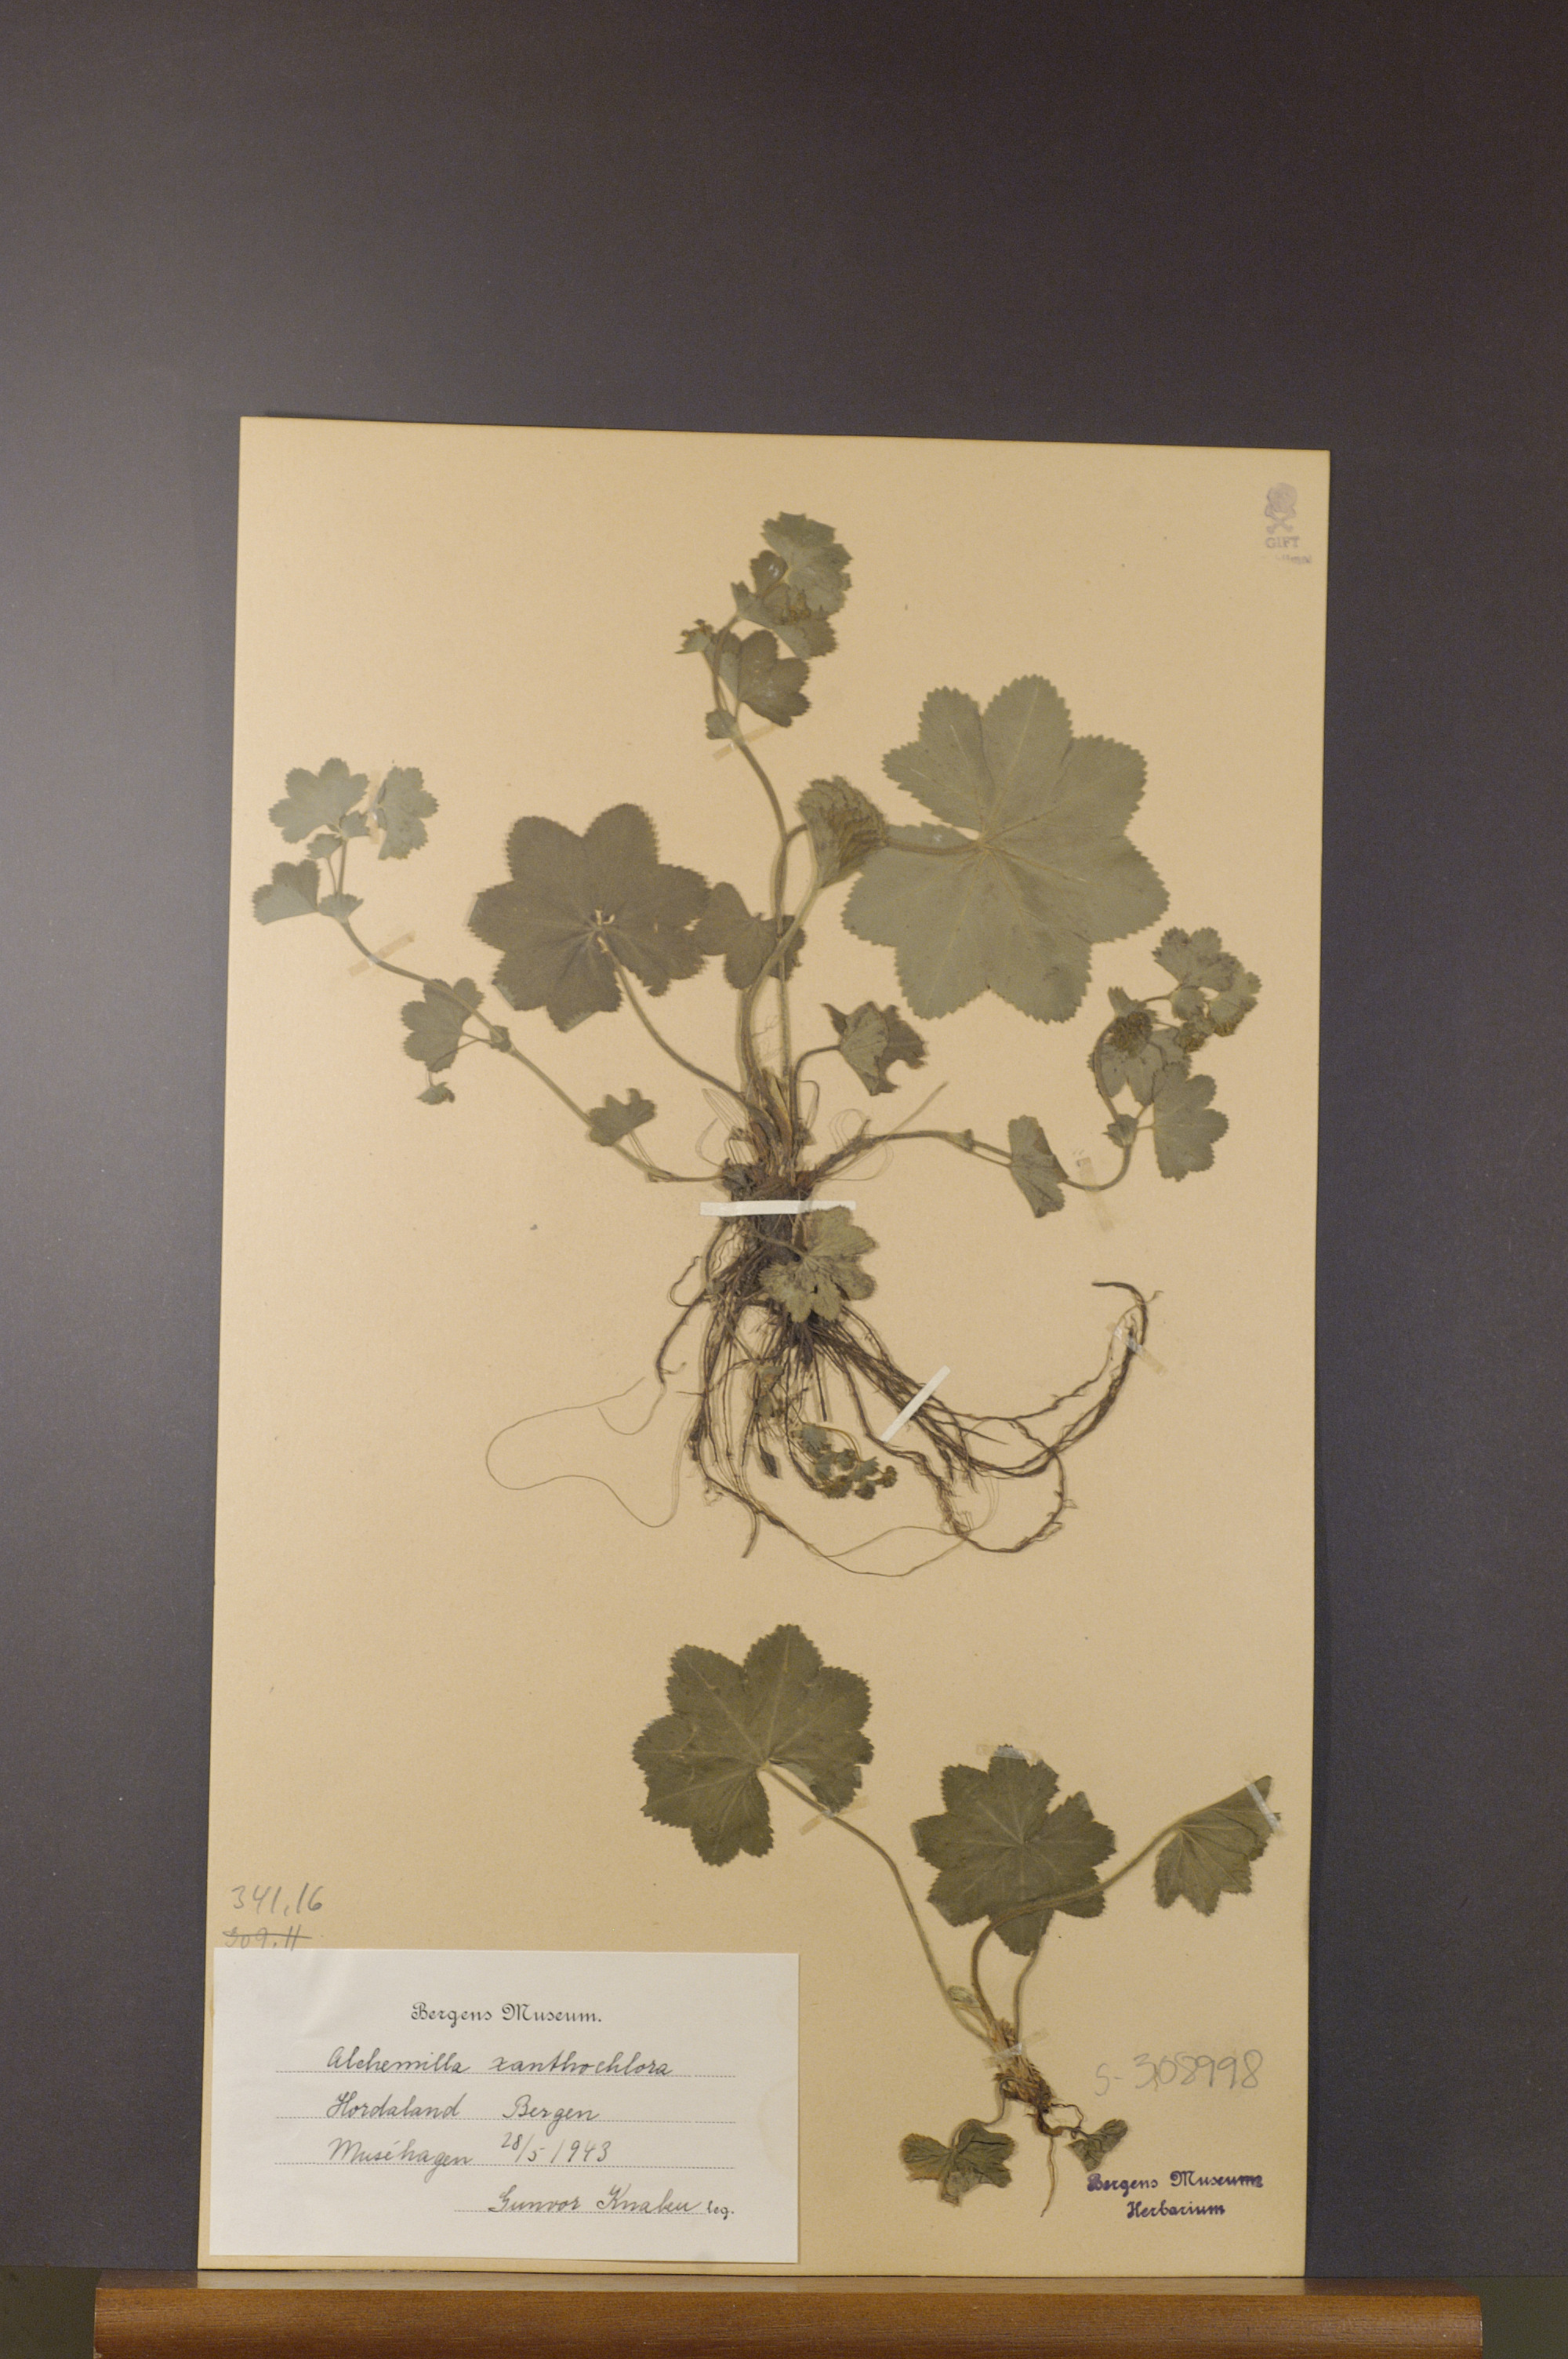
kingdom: Plantae
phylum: Tracheophyta
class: Magnoliopsida
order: Rosales
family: Rosaceae
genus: Alchemilla
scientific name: Alchemilla xanthochlora
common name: Intermediate lady's-mantle
